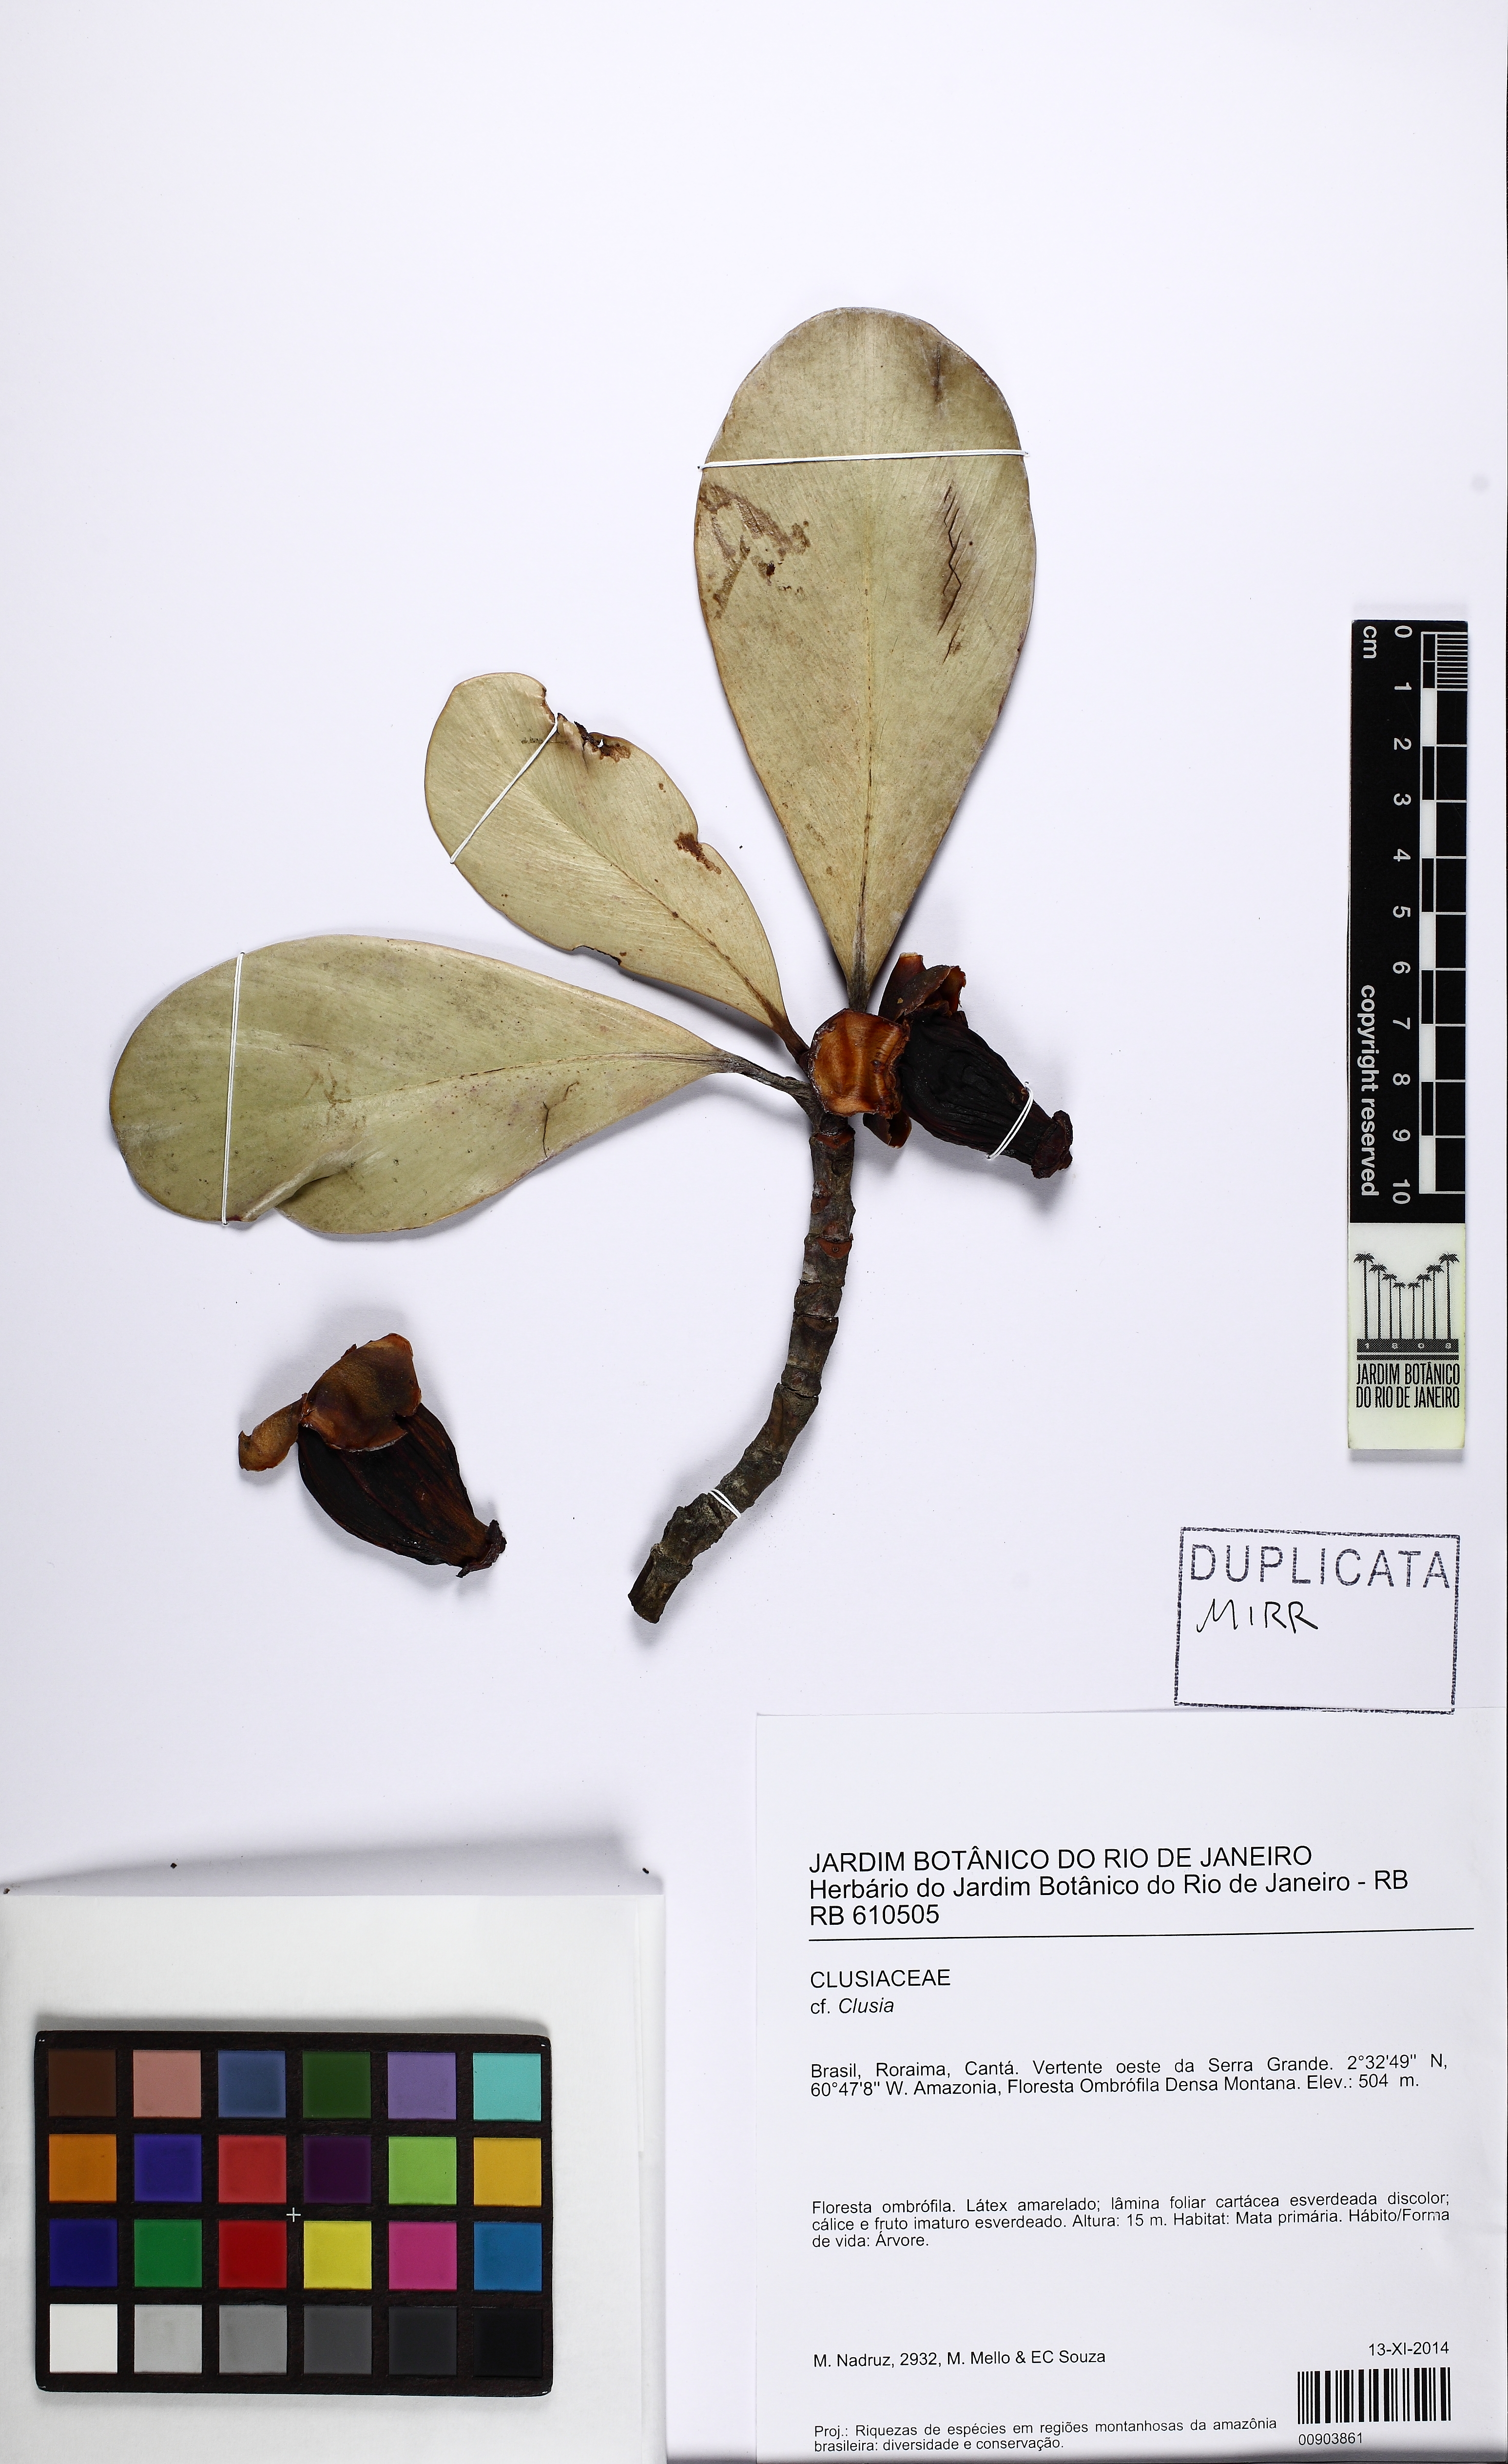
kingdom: Plantae
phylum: Tracheophyta
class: Magnoliopsida
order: Malpighiales
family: Clusiaceae
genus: Clusia
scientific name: Clusia
